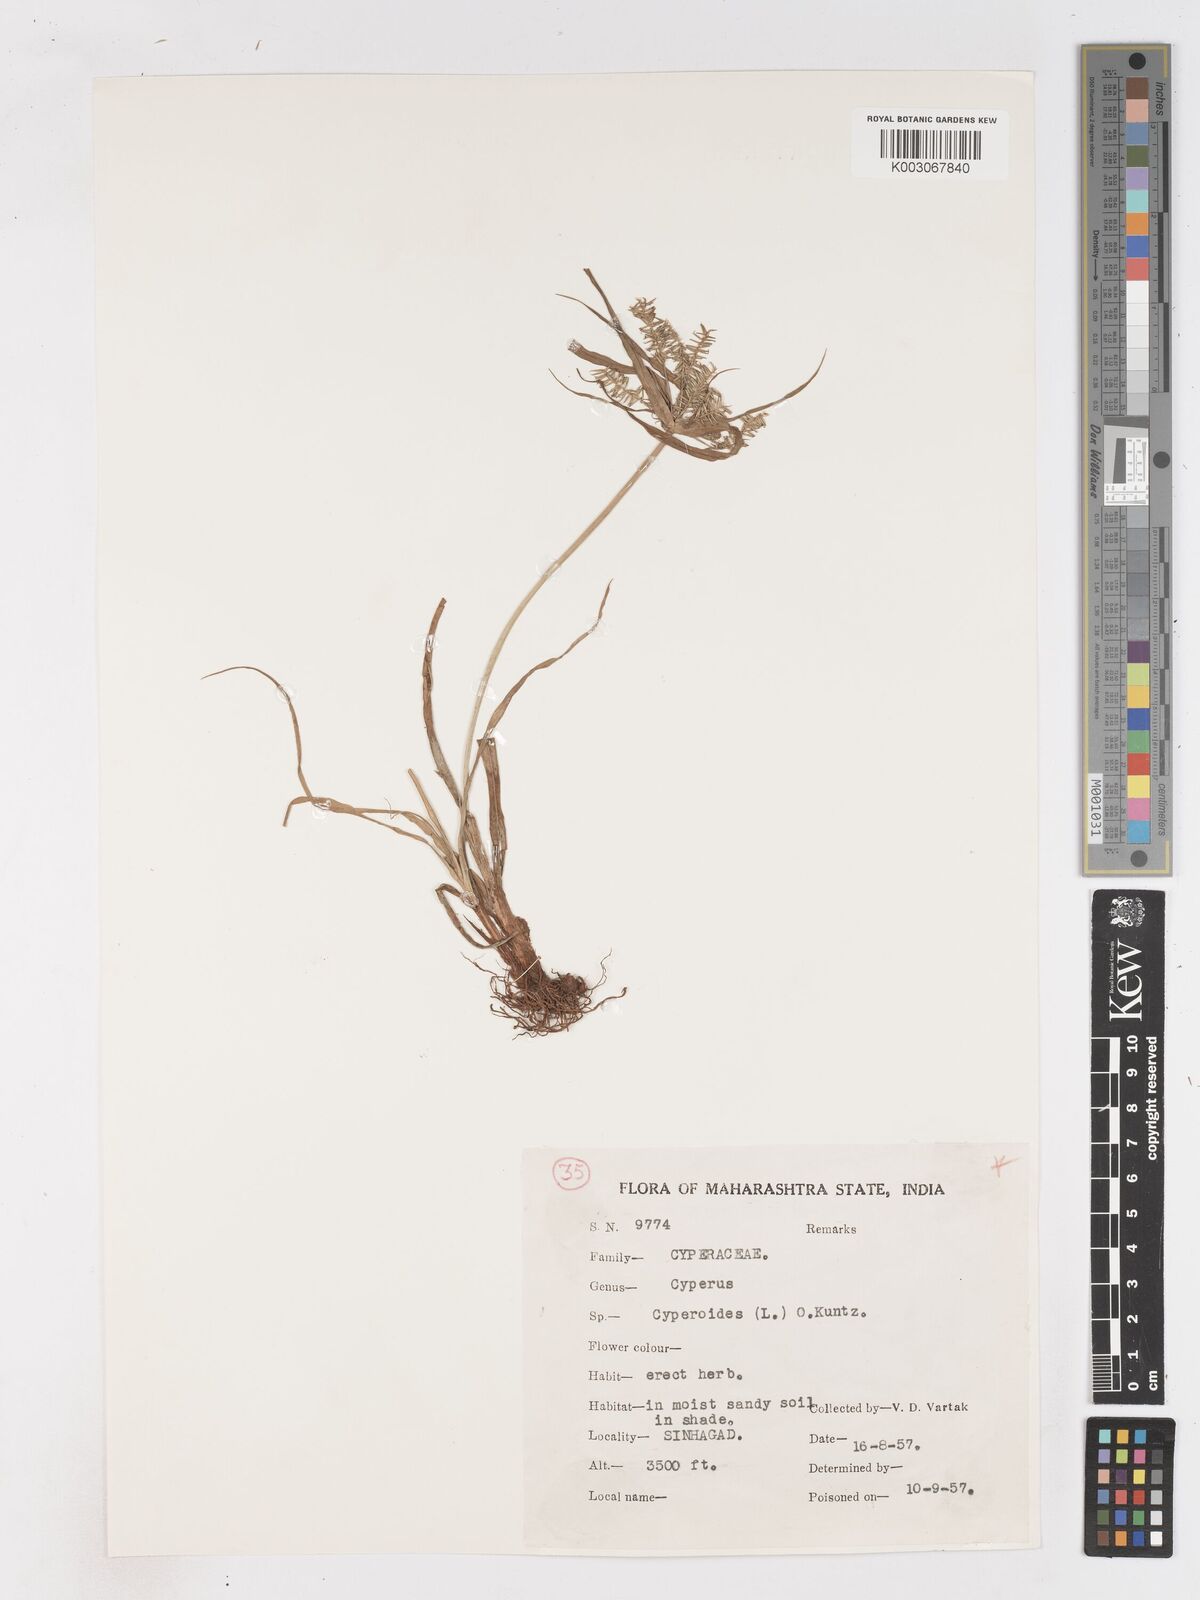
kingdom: Plantae
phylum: Tracheophyta
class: Liliopsida
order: Poales
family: Cyperaceae
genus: Cyperus
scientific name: Cyperus cyperoides
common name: Pacific island flat sedge
